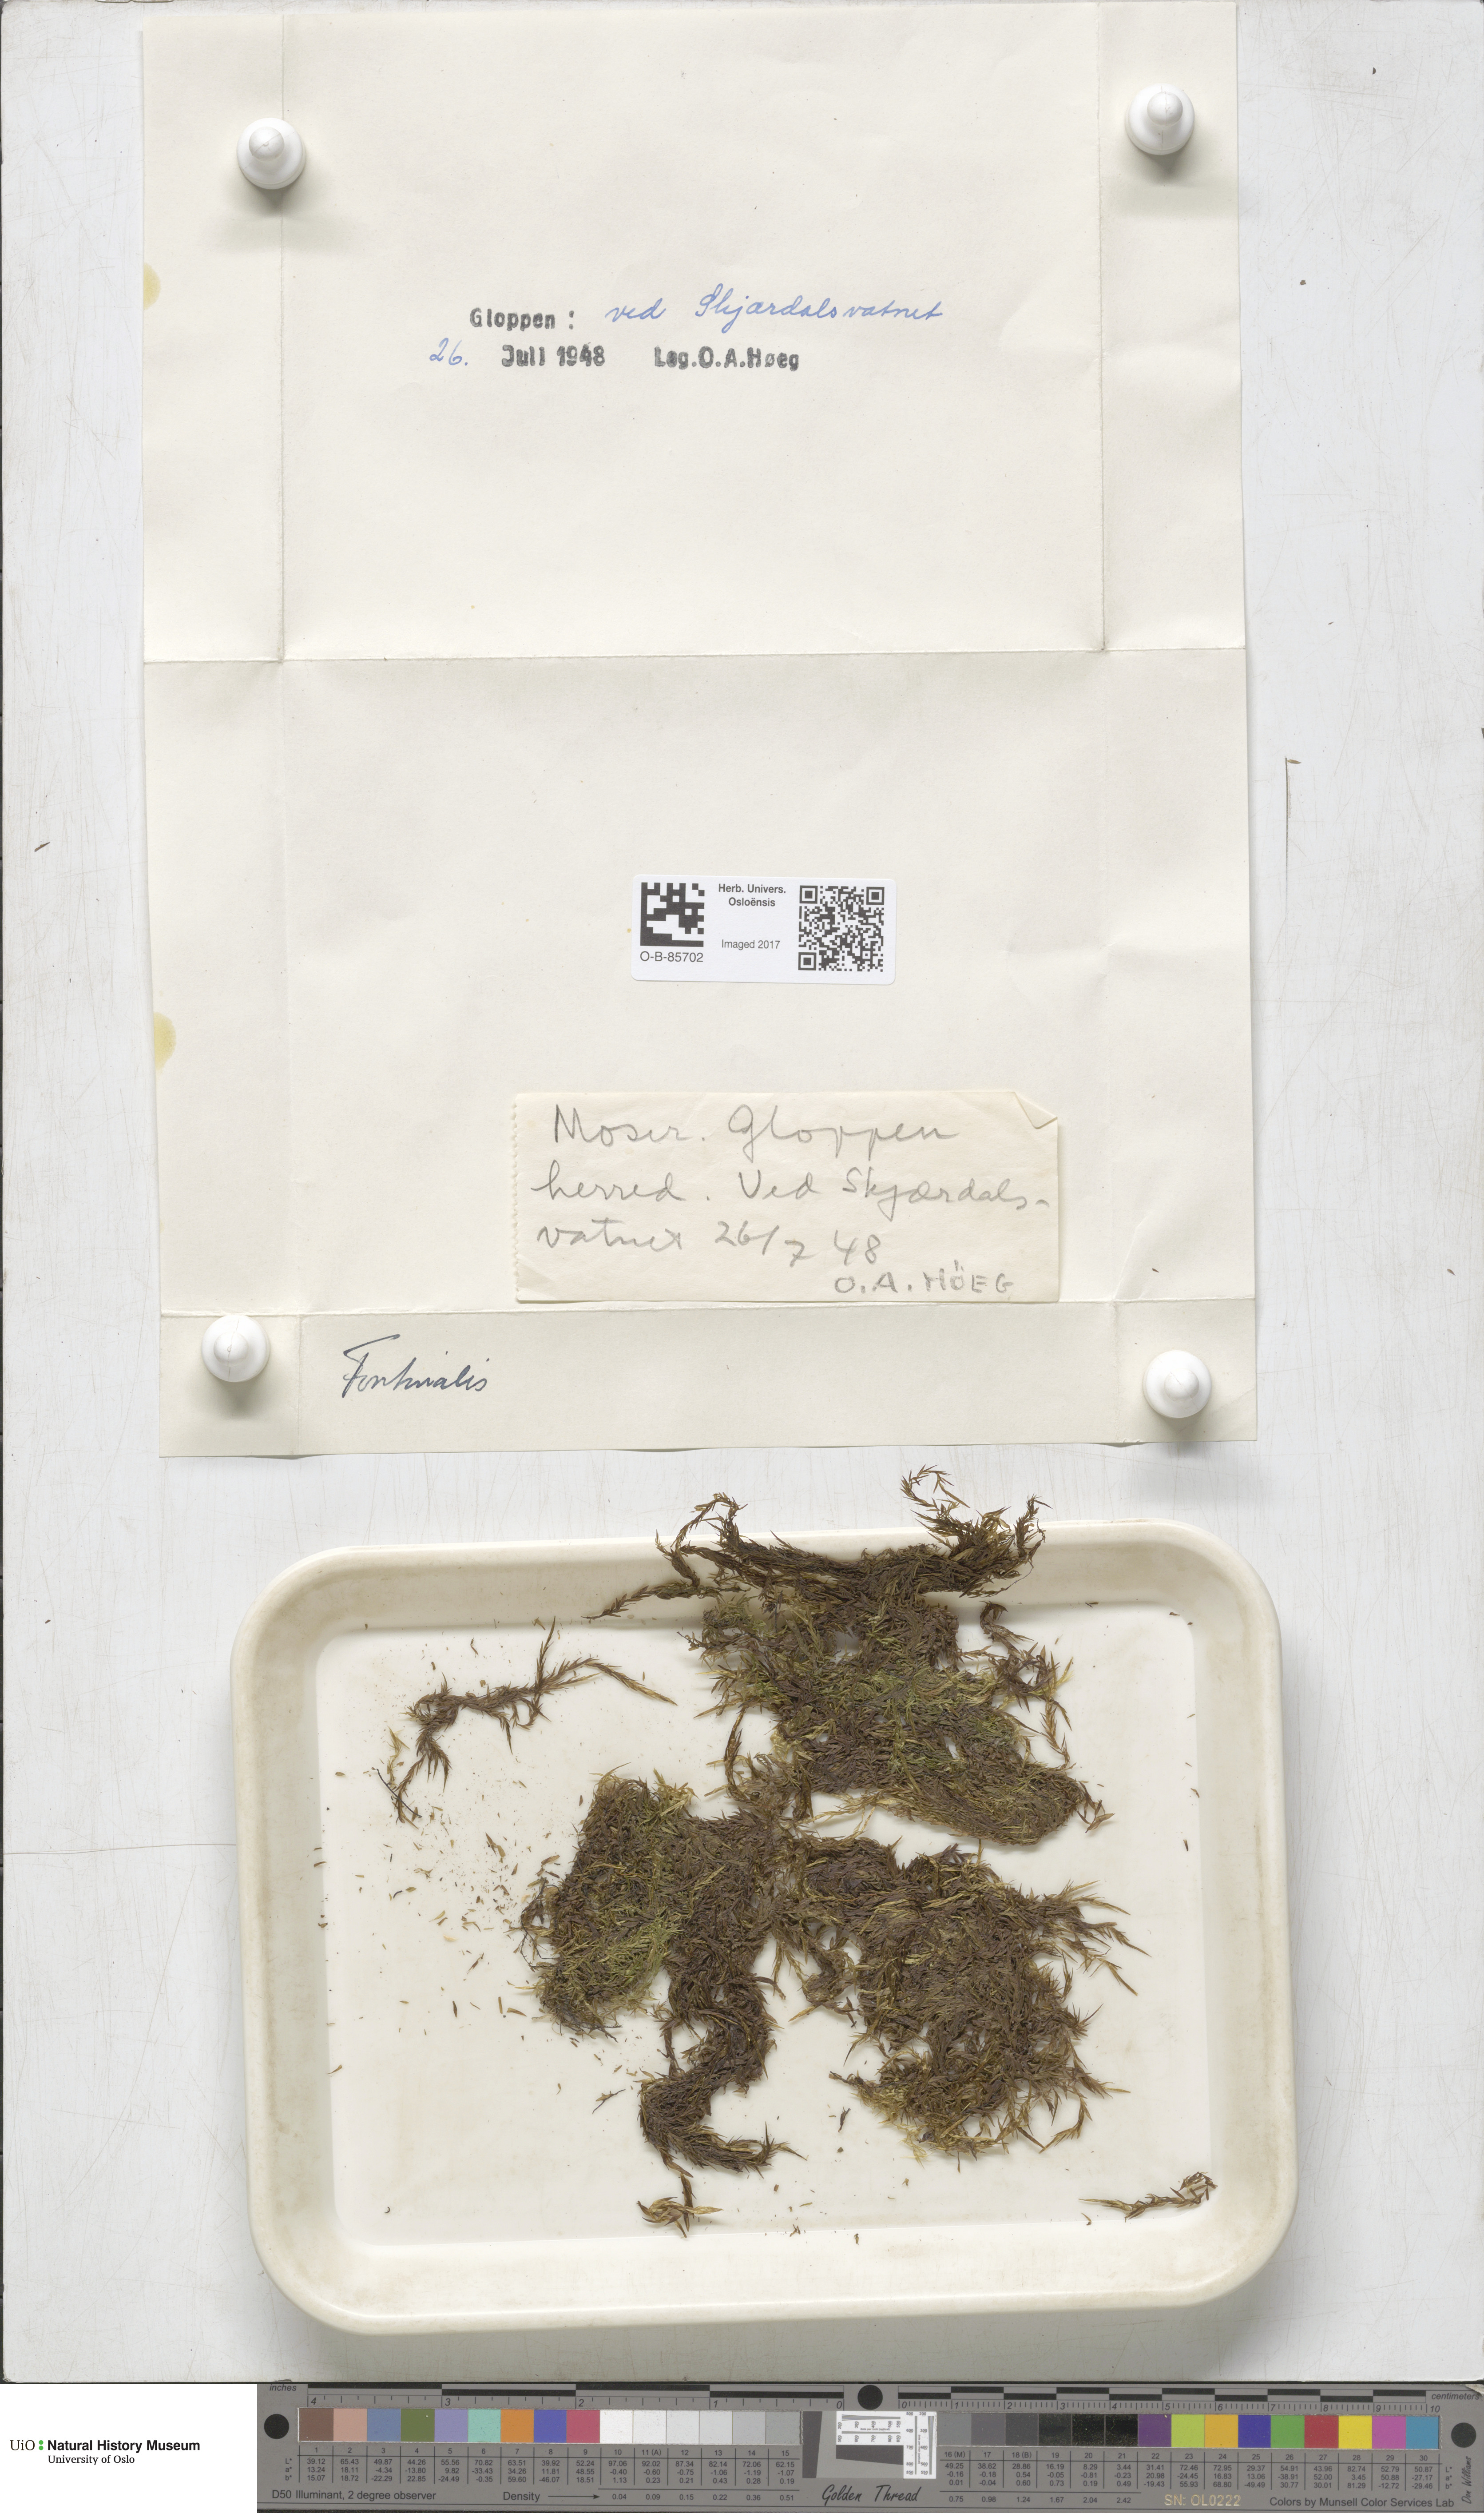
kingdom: Plantae
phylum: Bryophyta
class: Bryopsida
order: Hypnales
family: Fontinalaceae
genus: Fontinalis
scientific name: Fontinalis
